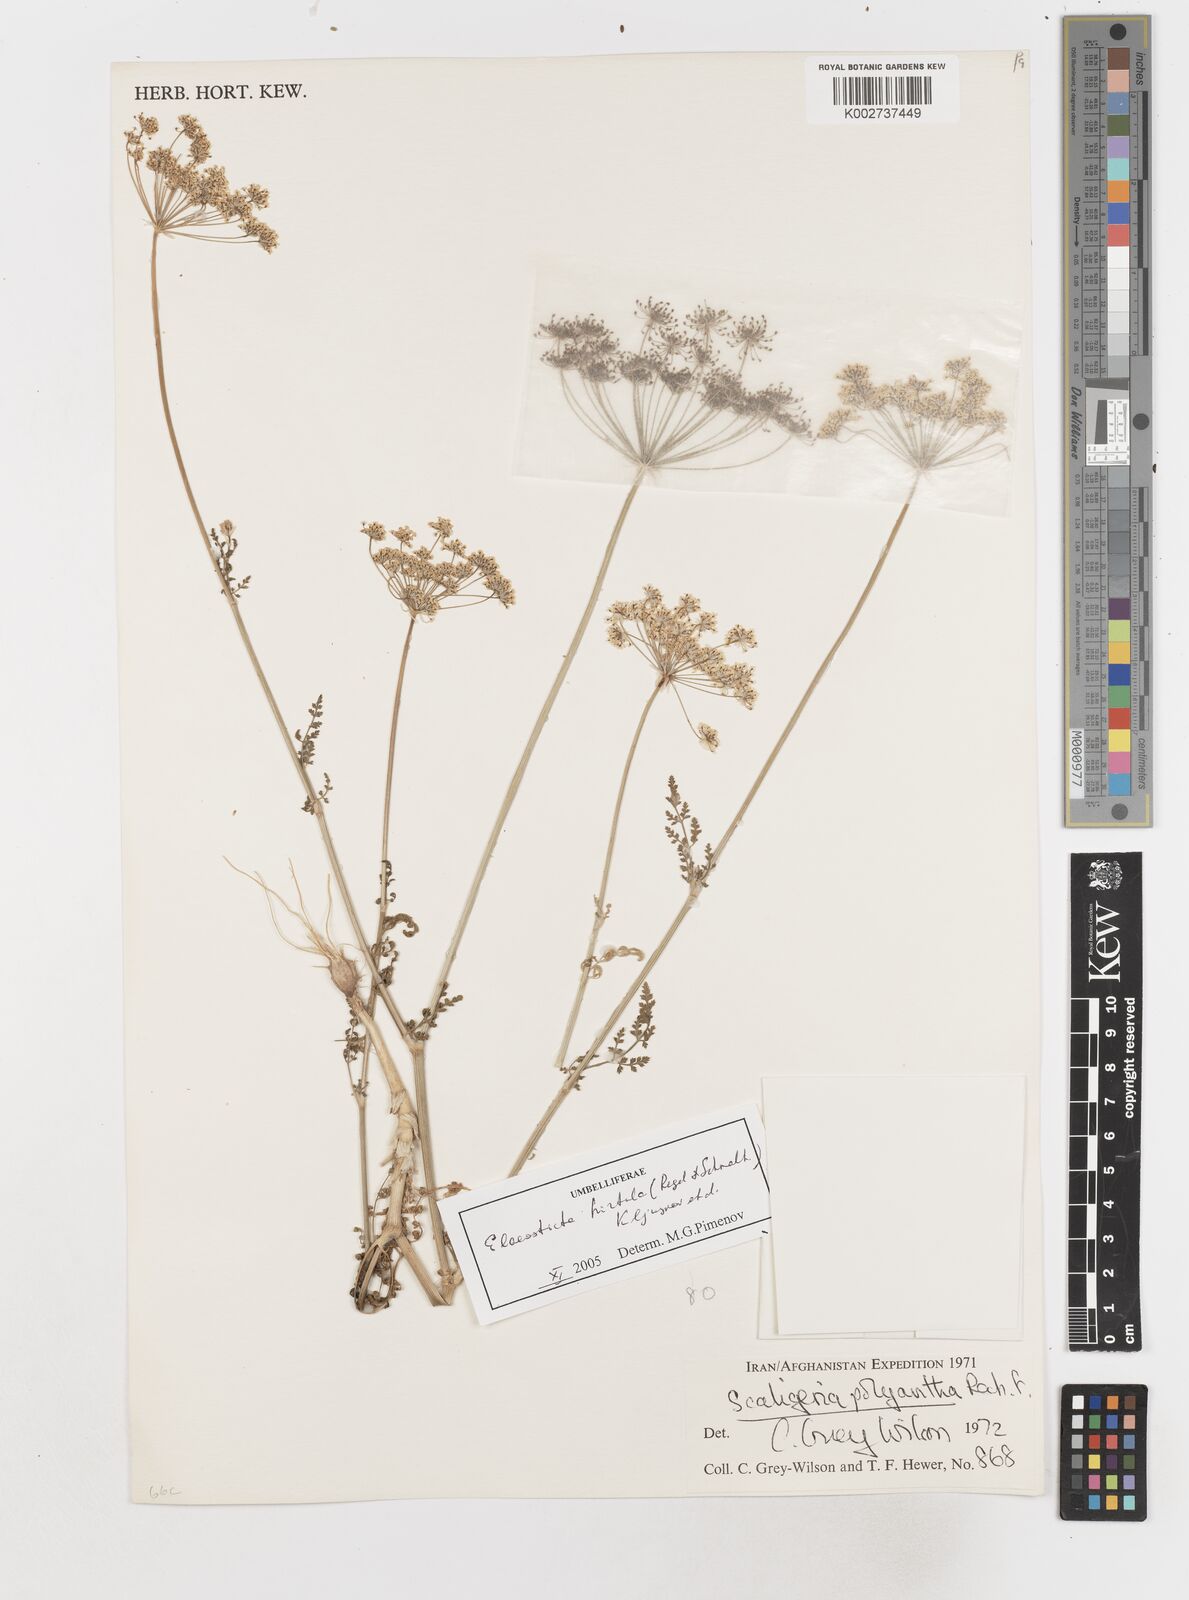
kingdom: Plantae
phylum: Tracheophyta
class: Magnoliopsida
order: Apiales
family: Apiaceae
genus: Scaligeria
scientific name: Scaligeria hirtula
